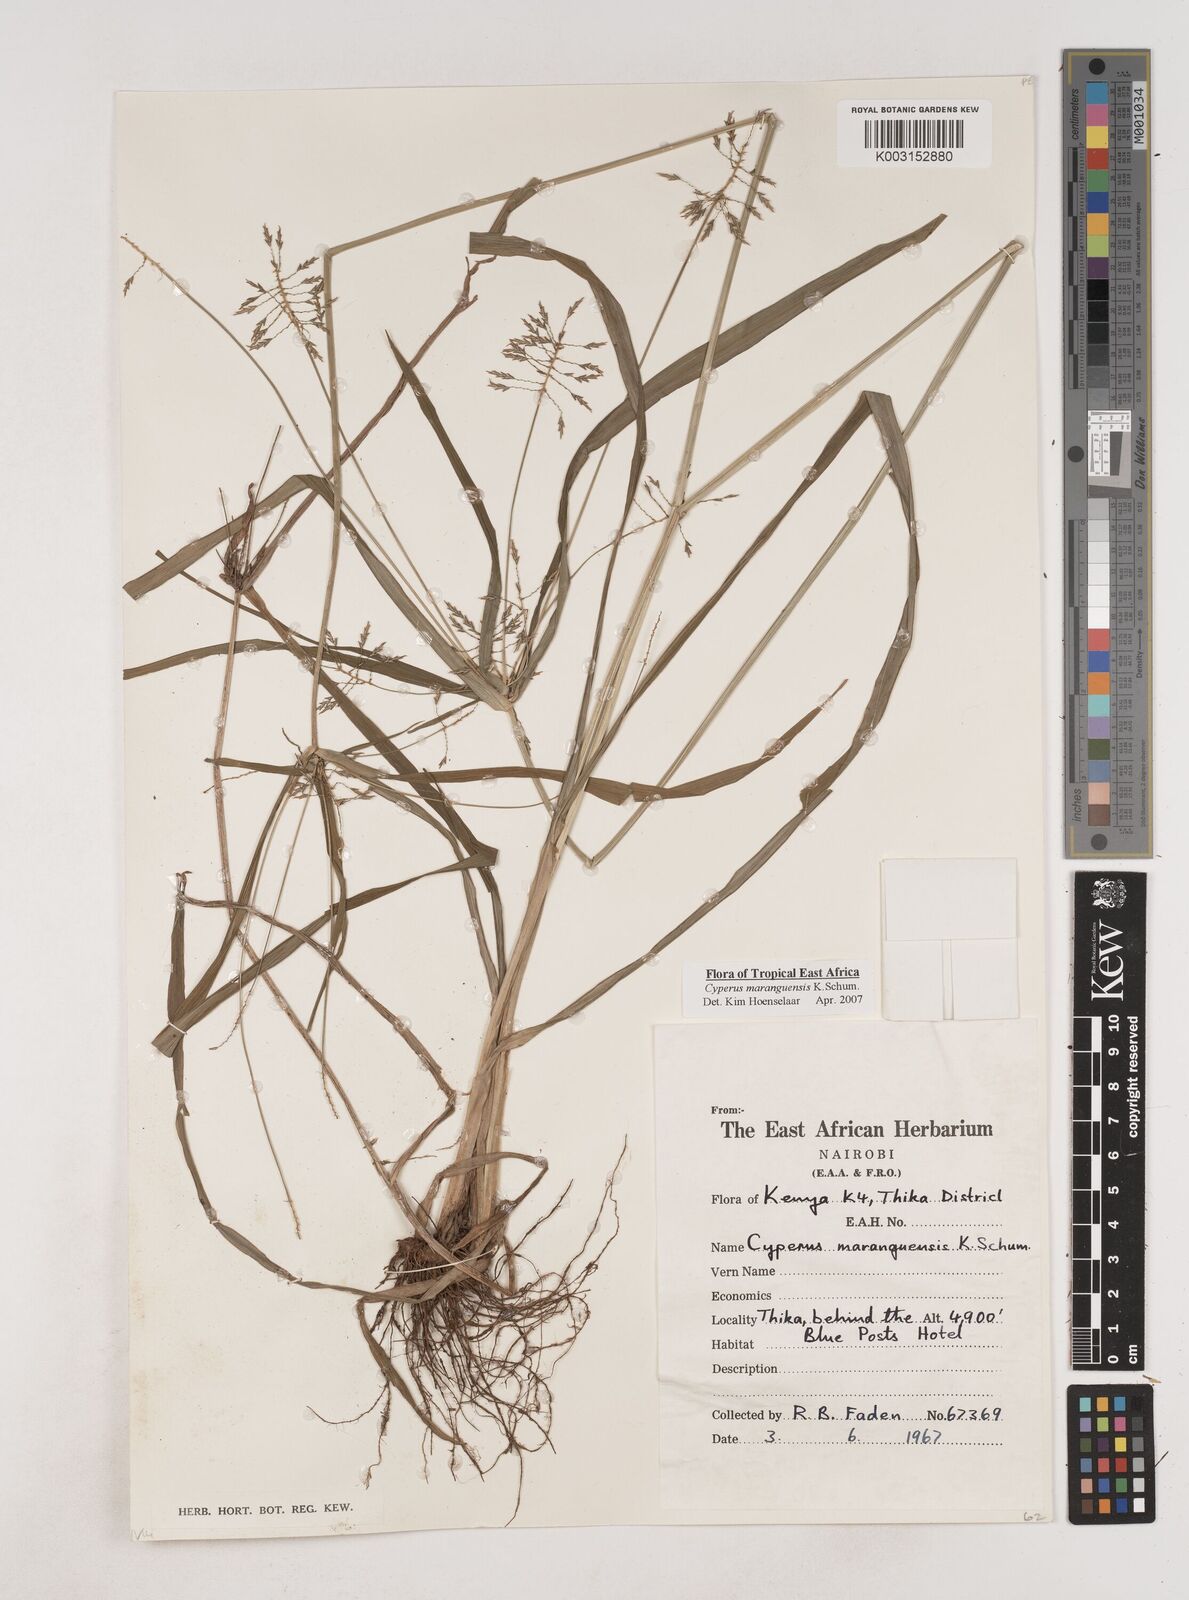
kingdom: Plantae
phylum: Tracheophyta
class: Liliopsida
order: Poales
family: Cyperaceae
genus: Cyperus
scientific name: Cyperus maranguensis
